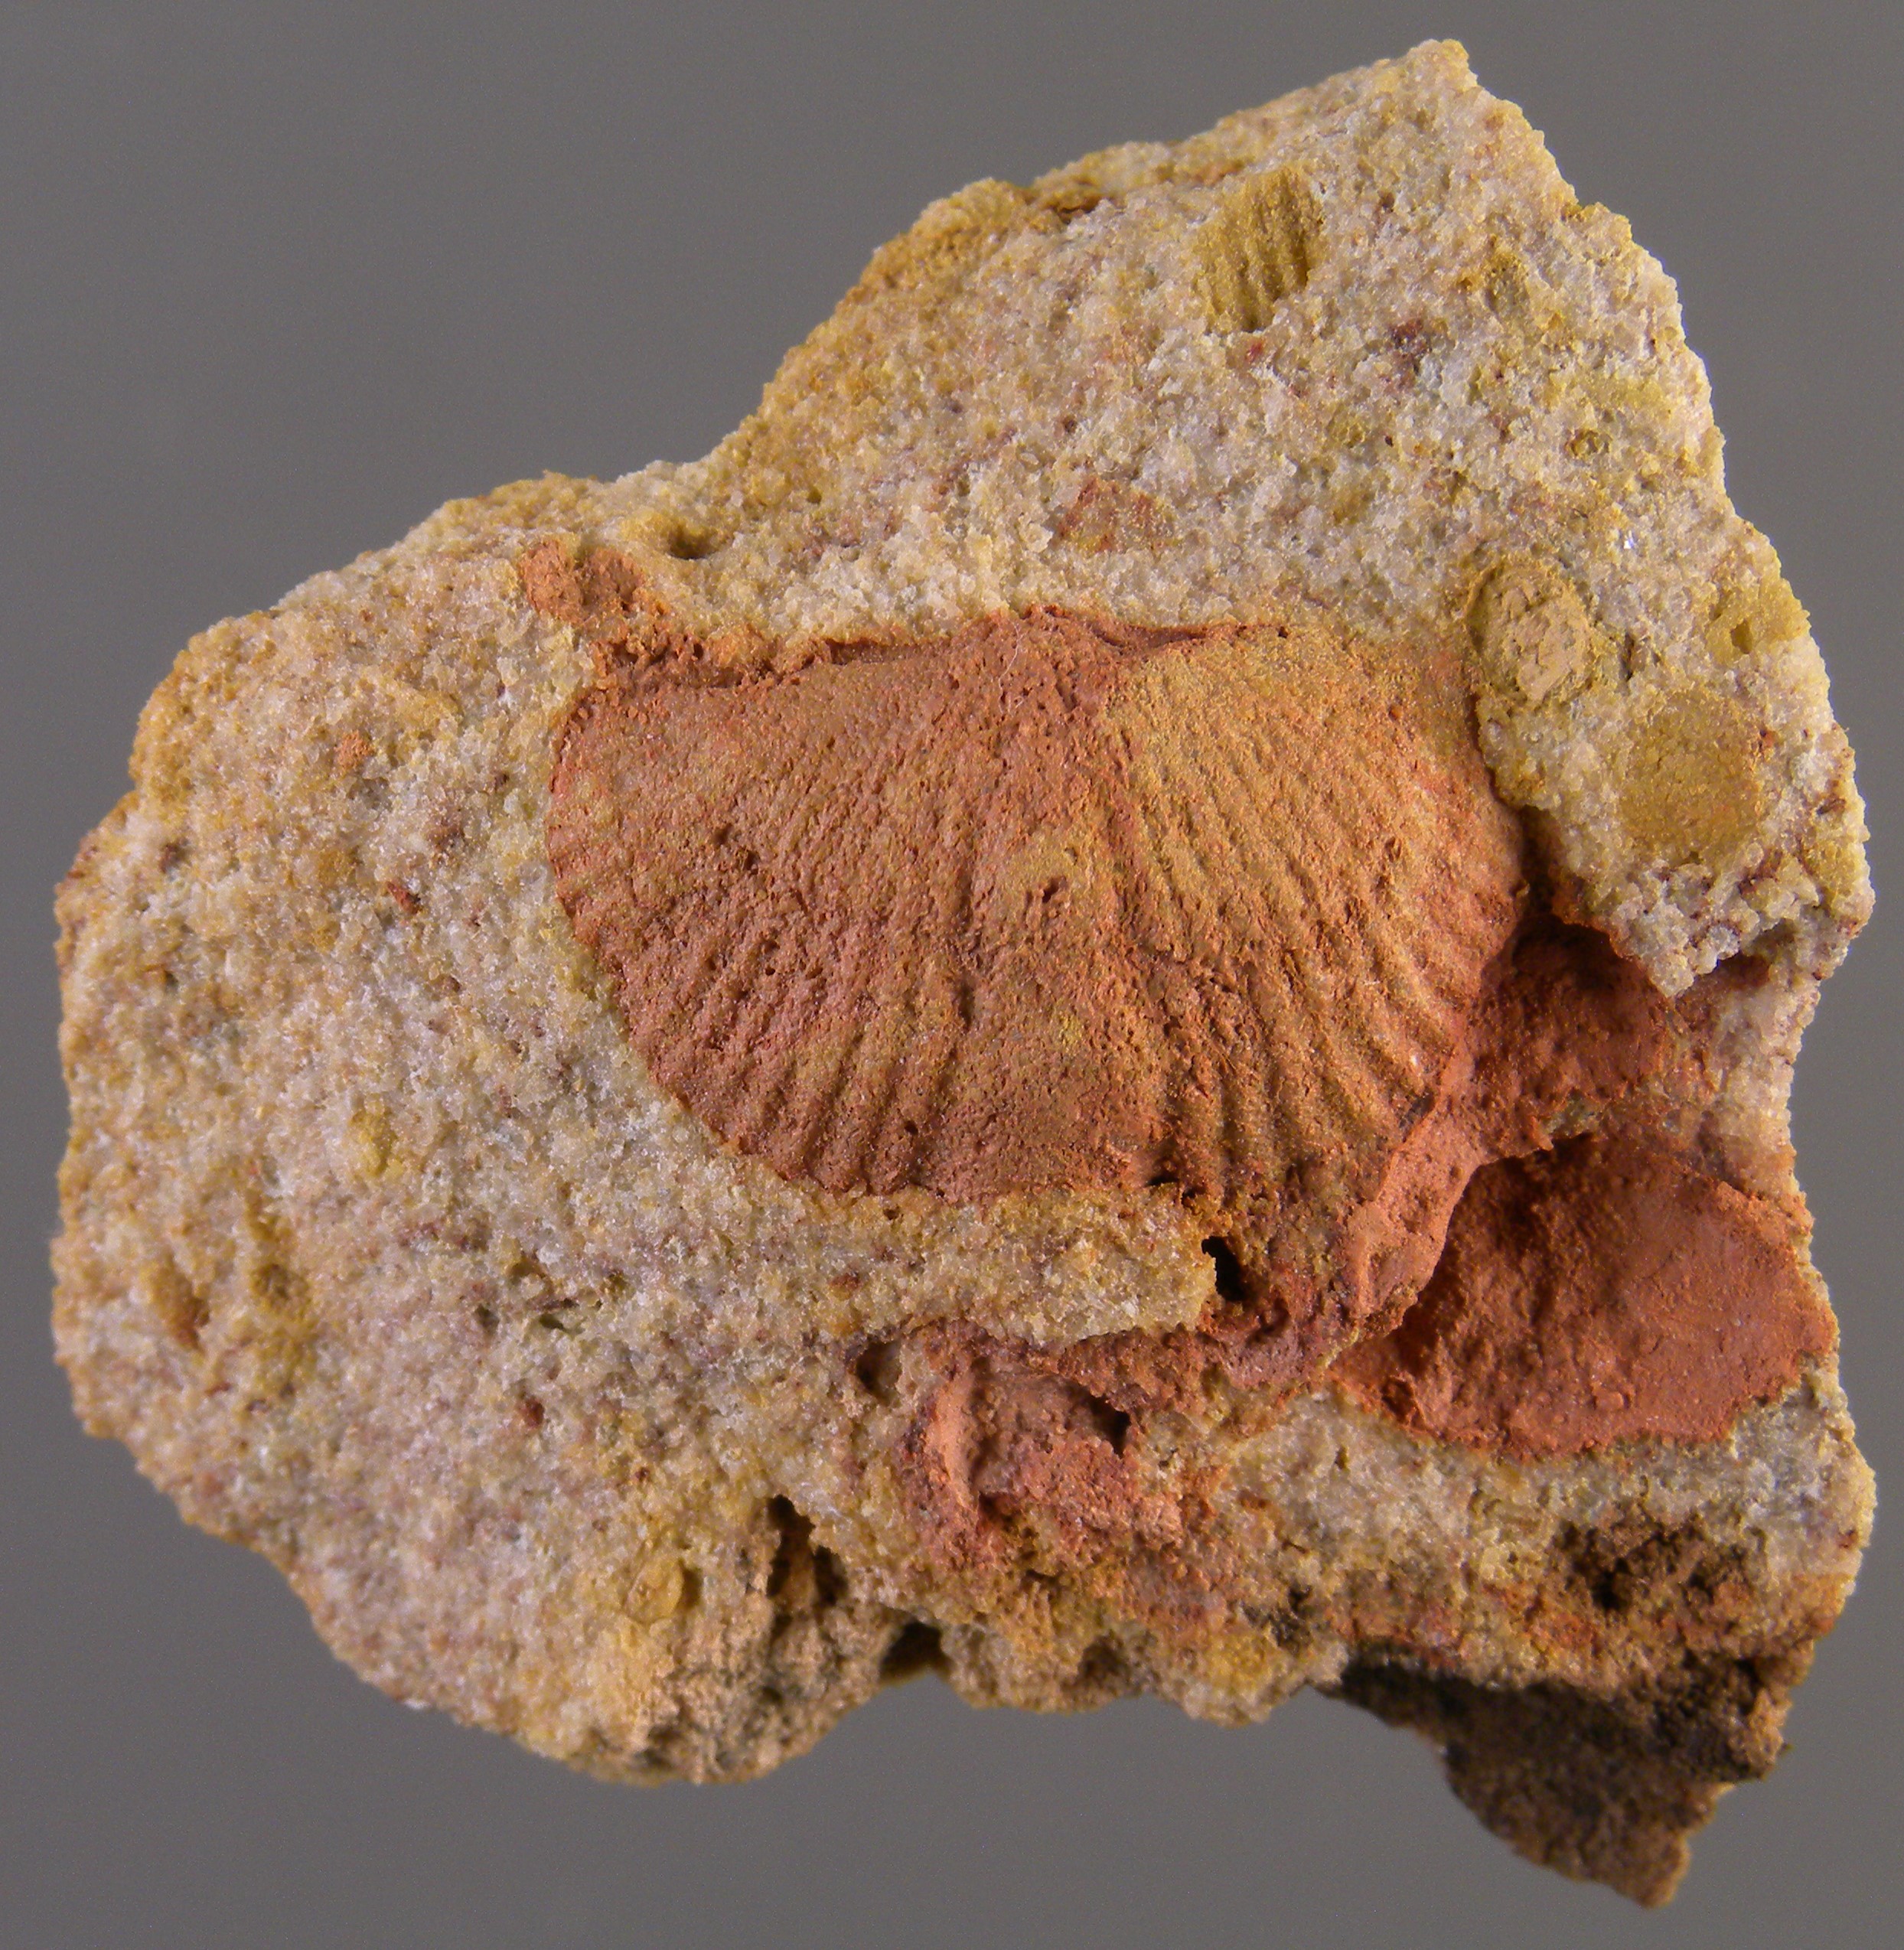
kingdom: Animalia
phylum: Brachiopoda
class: Rhynchonellata
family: Spinocyrtiidae
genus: Subcuspidella
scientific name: Subcuspidella
